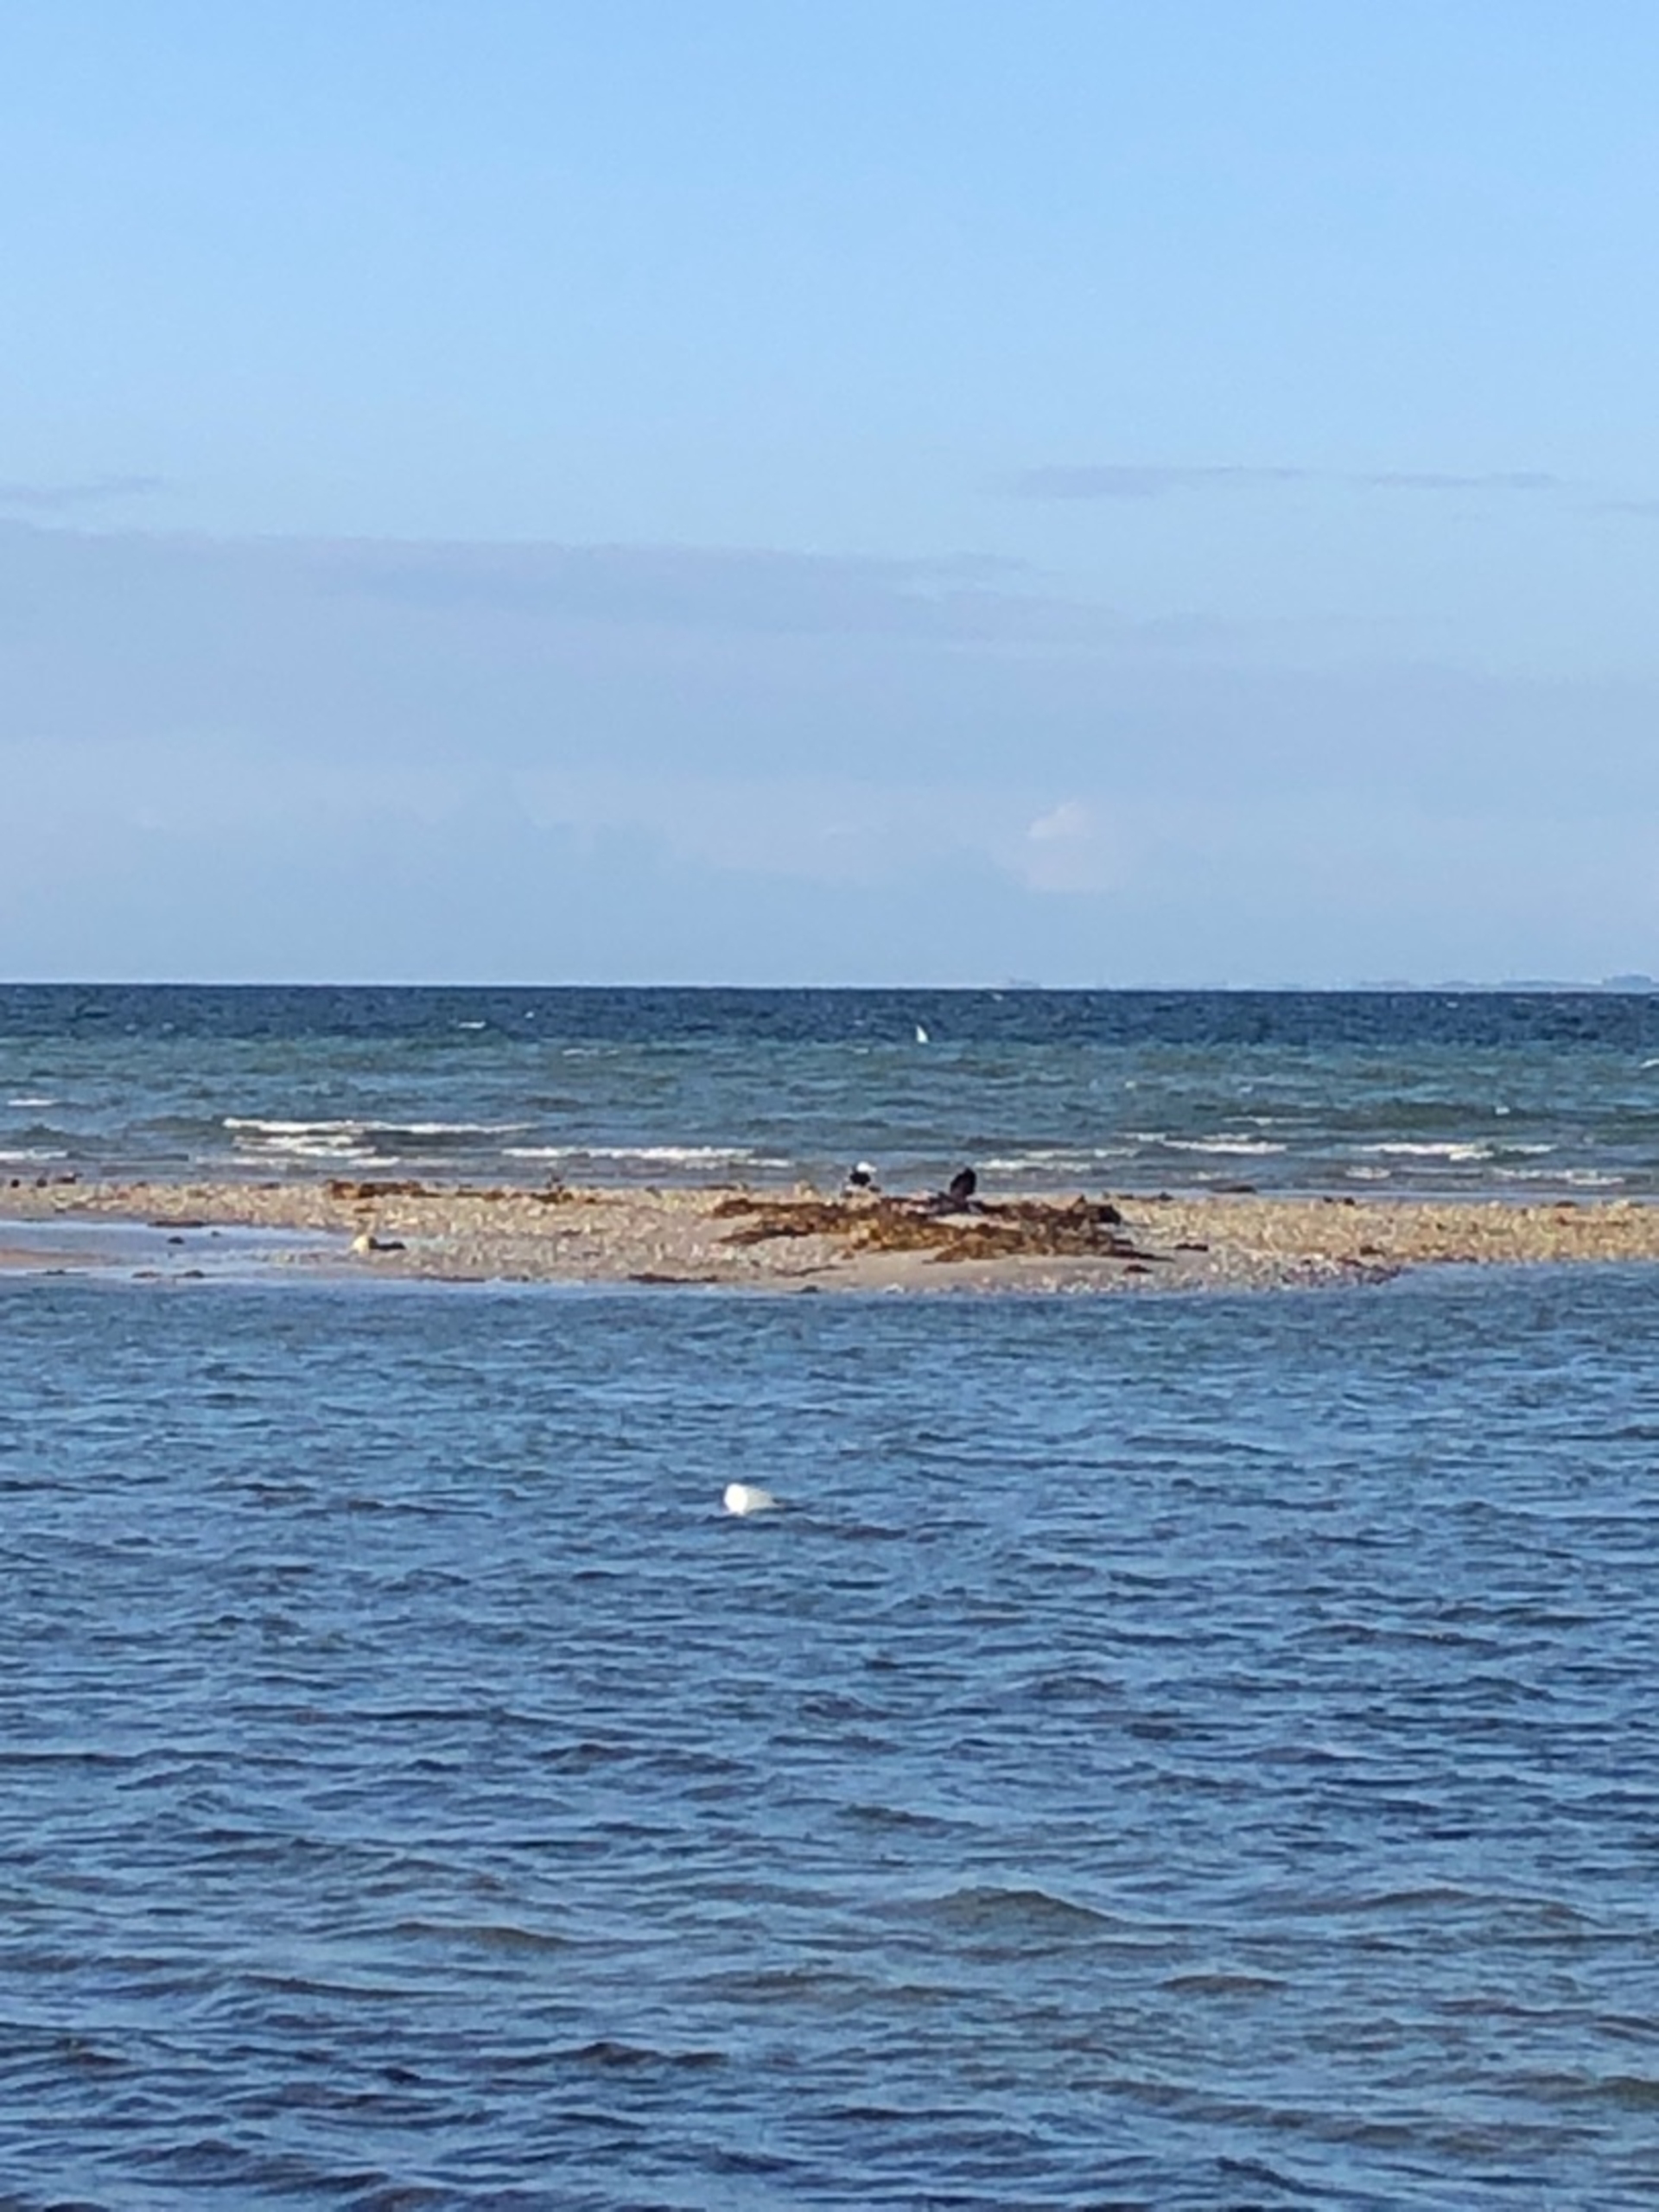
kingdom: Animalia
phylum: Chordata
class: Aves
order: Suliformes
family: Phalacrocoracidae
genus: Phalacrocorax
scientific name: Phalacrocorax carbo
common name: Skarv
